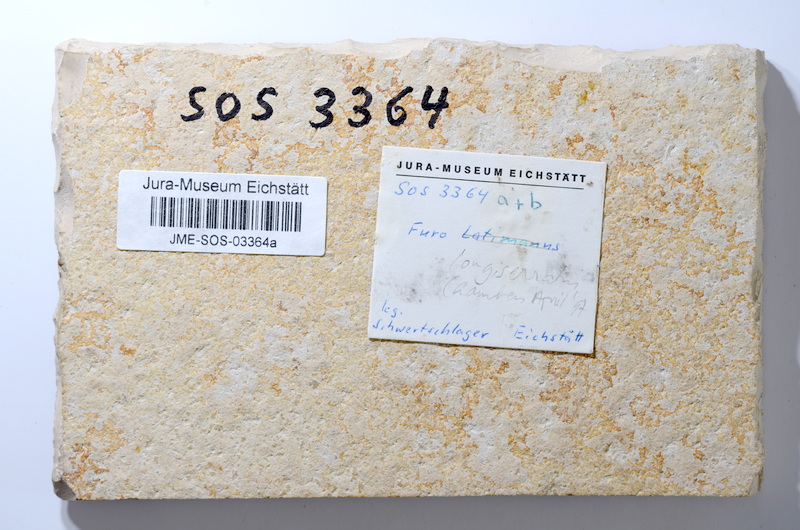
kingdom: Animalia
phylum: Chordata
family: Ophiopsiellidae
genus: Furo
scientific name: Furo longiserratus
